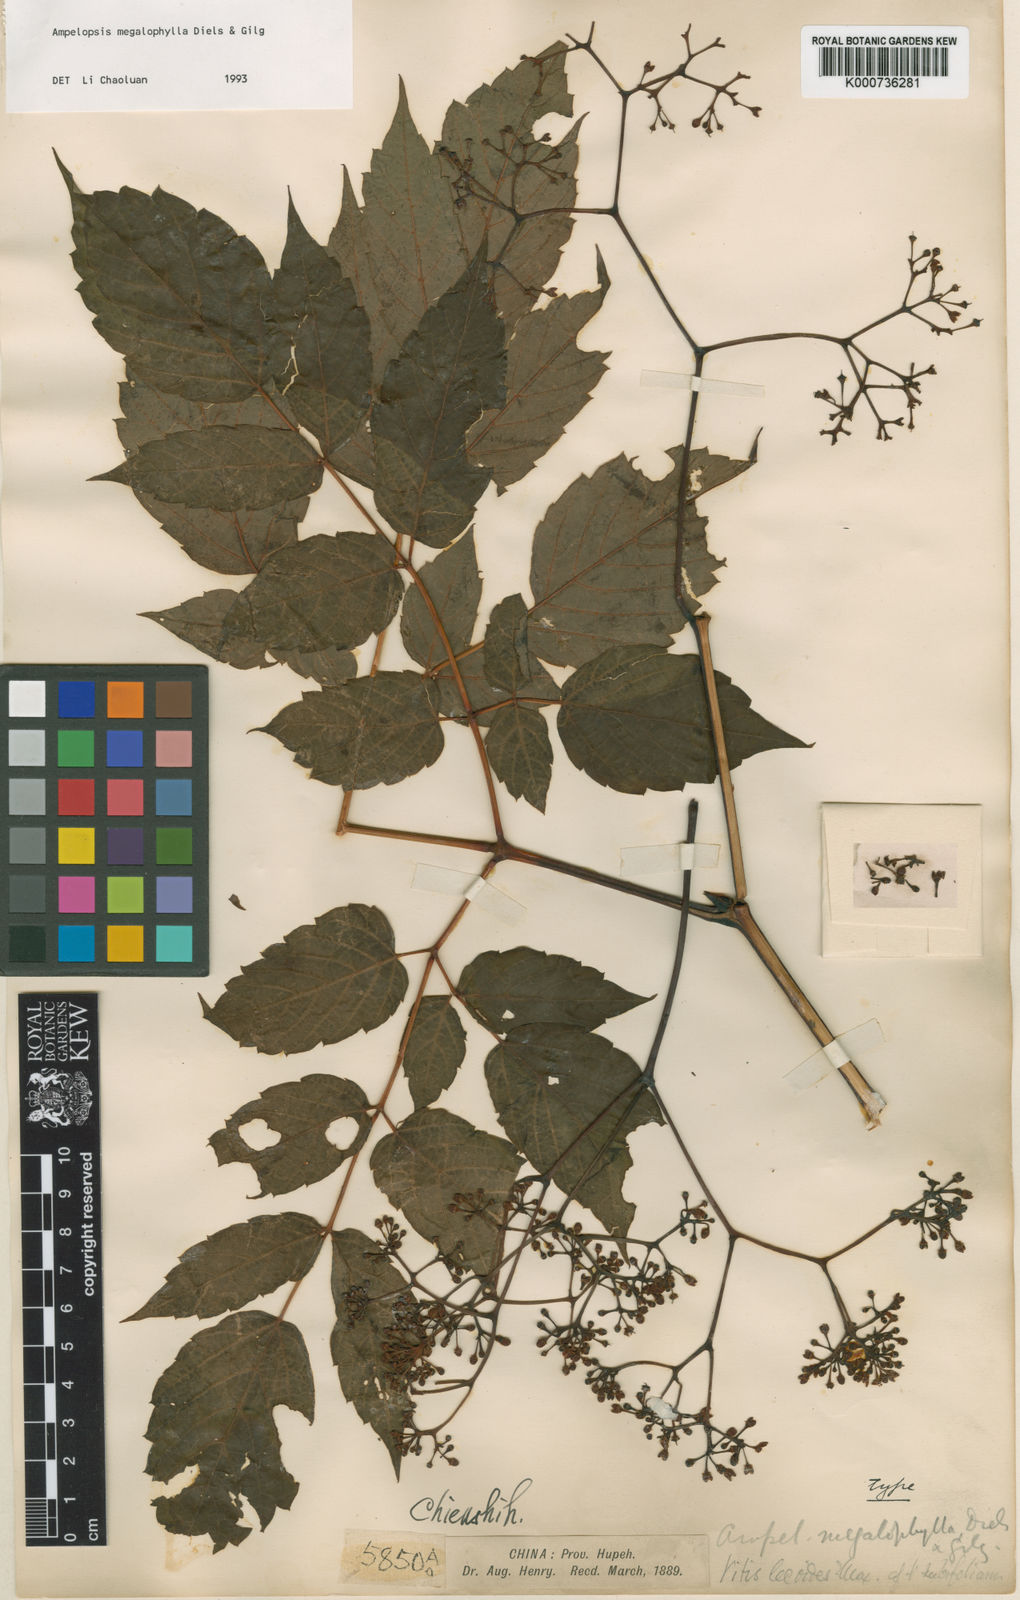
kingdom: Plantae
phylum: Tracheophyta
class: Magnoliopsida
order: Vitales
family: Vitaceae
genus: Nekemias
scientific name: Nekemias megalophylla
